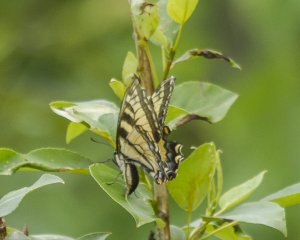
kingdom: Animalia
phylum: Arthropoda
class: Insecta
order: Lepidoptera
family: Papilionidae
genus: Pterourus
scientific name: Pterourus canadensis
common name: Canadian Tiger Swallowtail
